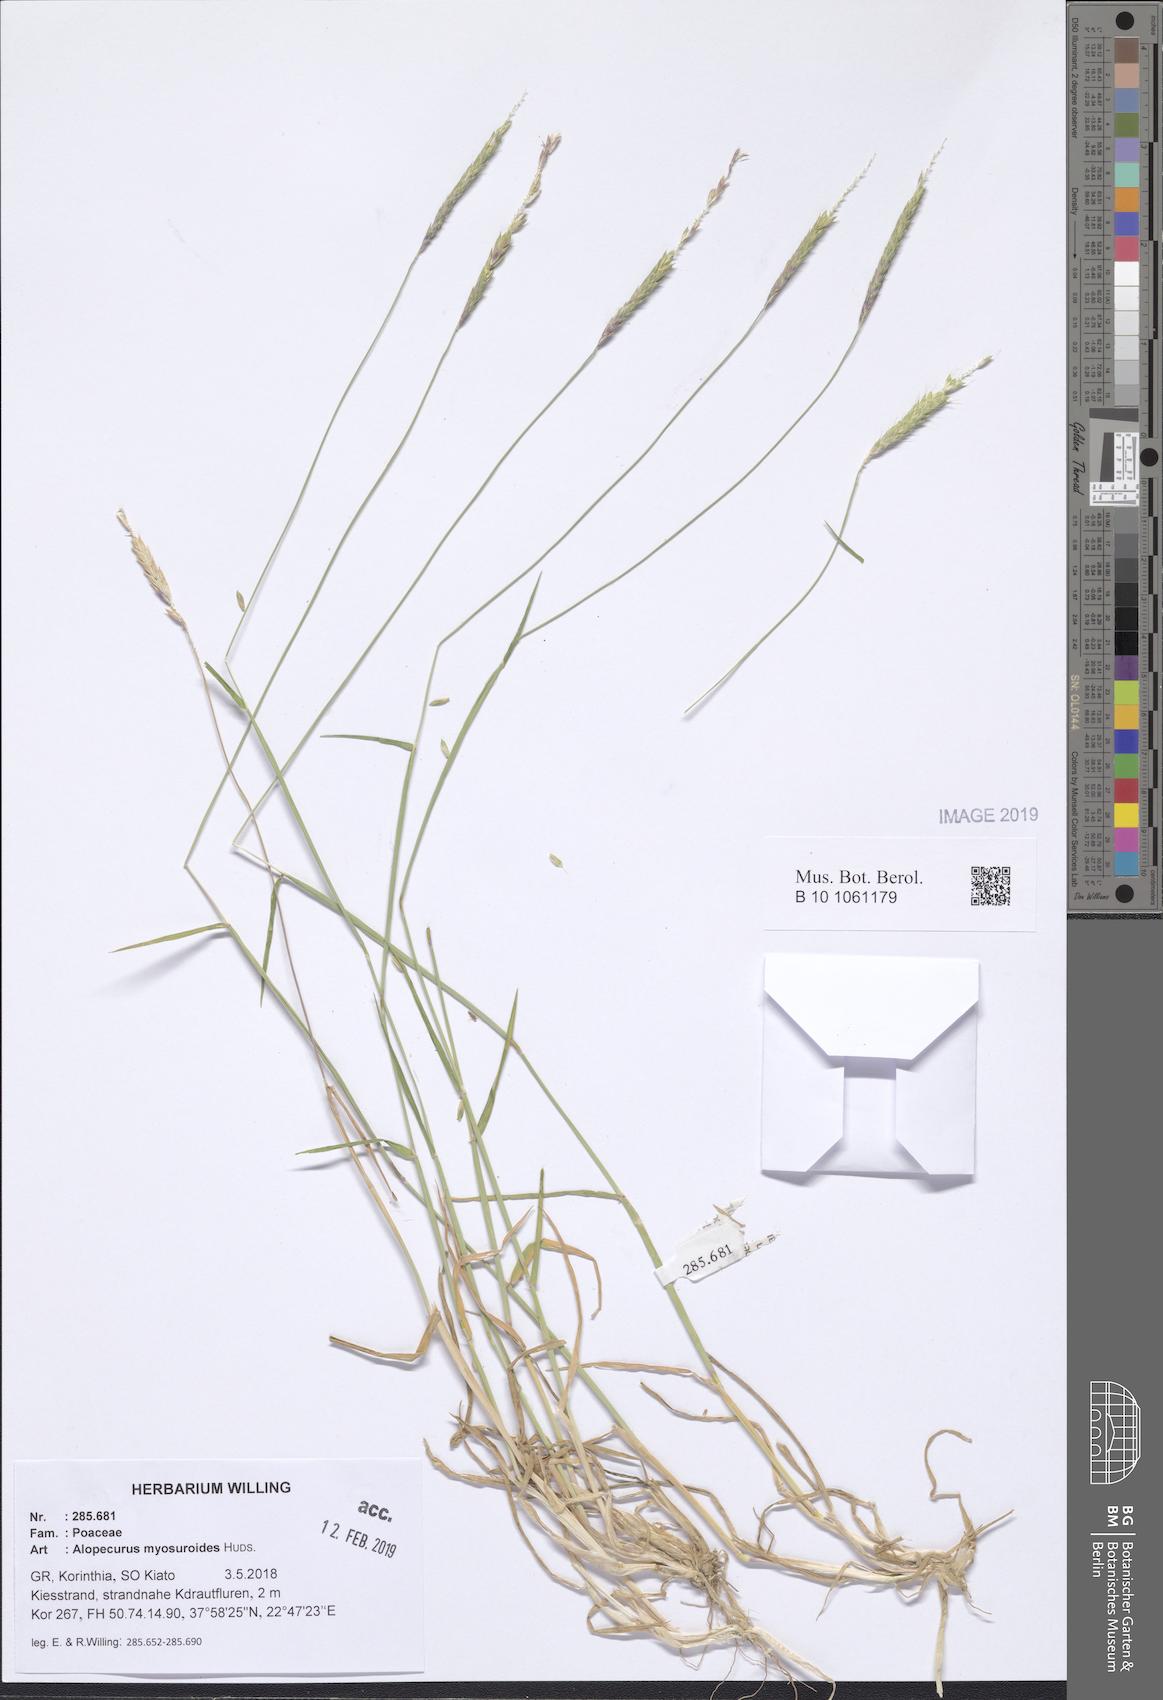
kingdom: Plantae
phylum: Tracheophyta
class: Liliopsida
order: Poales
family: Poaceae
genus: Alopecurus
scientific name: Alopecurus myosuroides
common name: Black-grass
